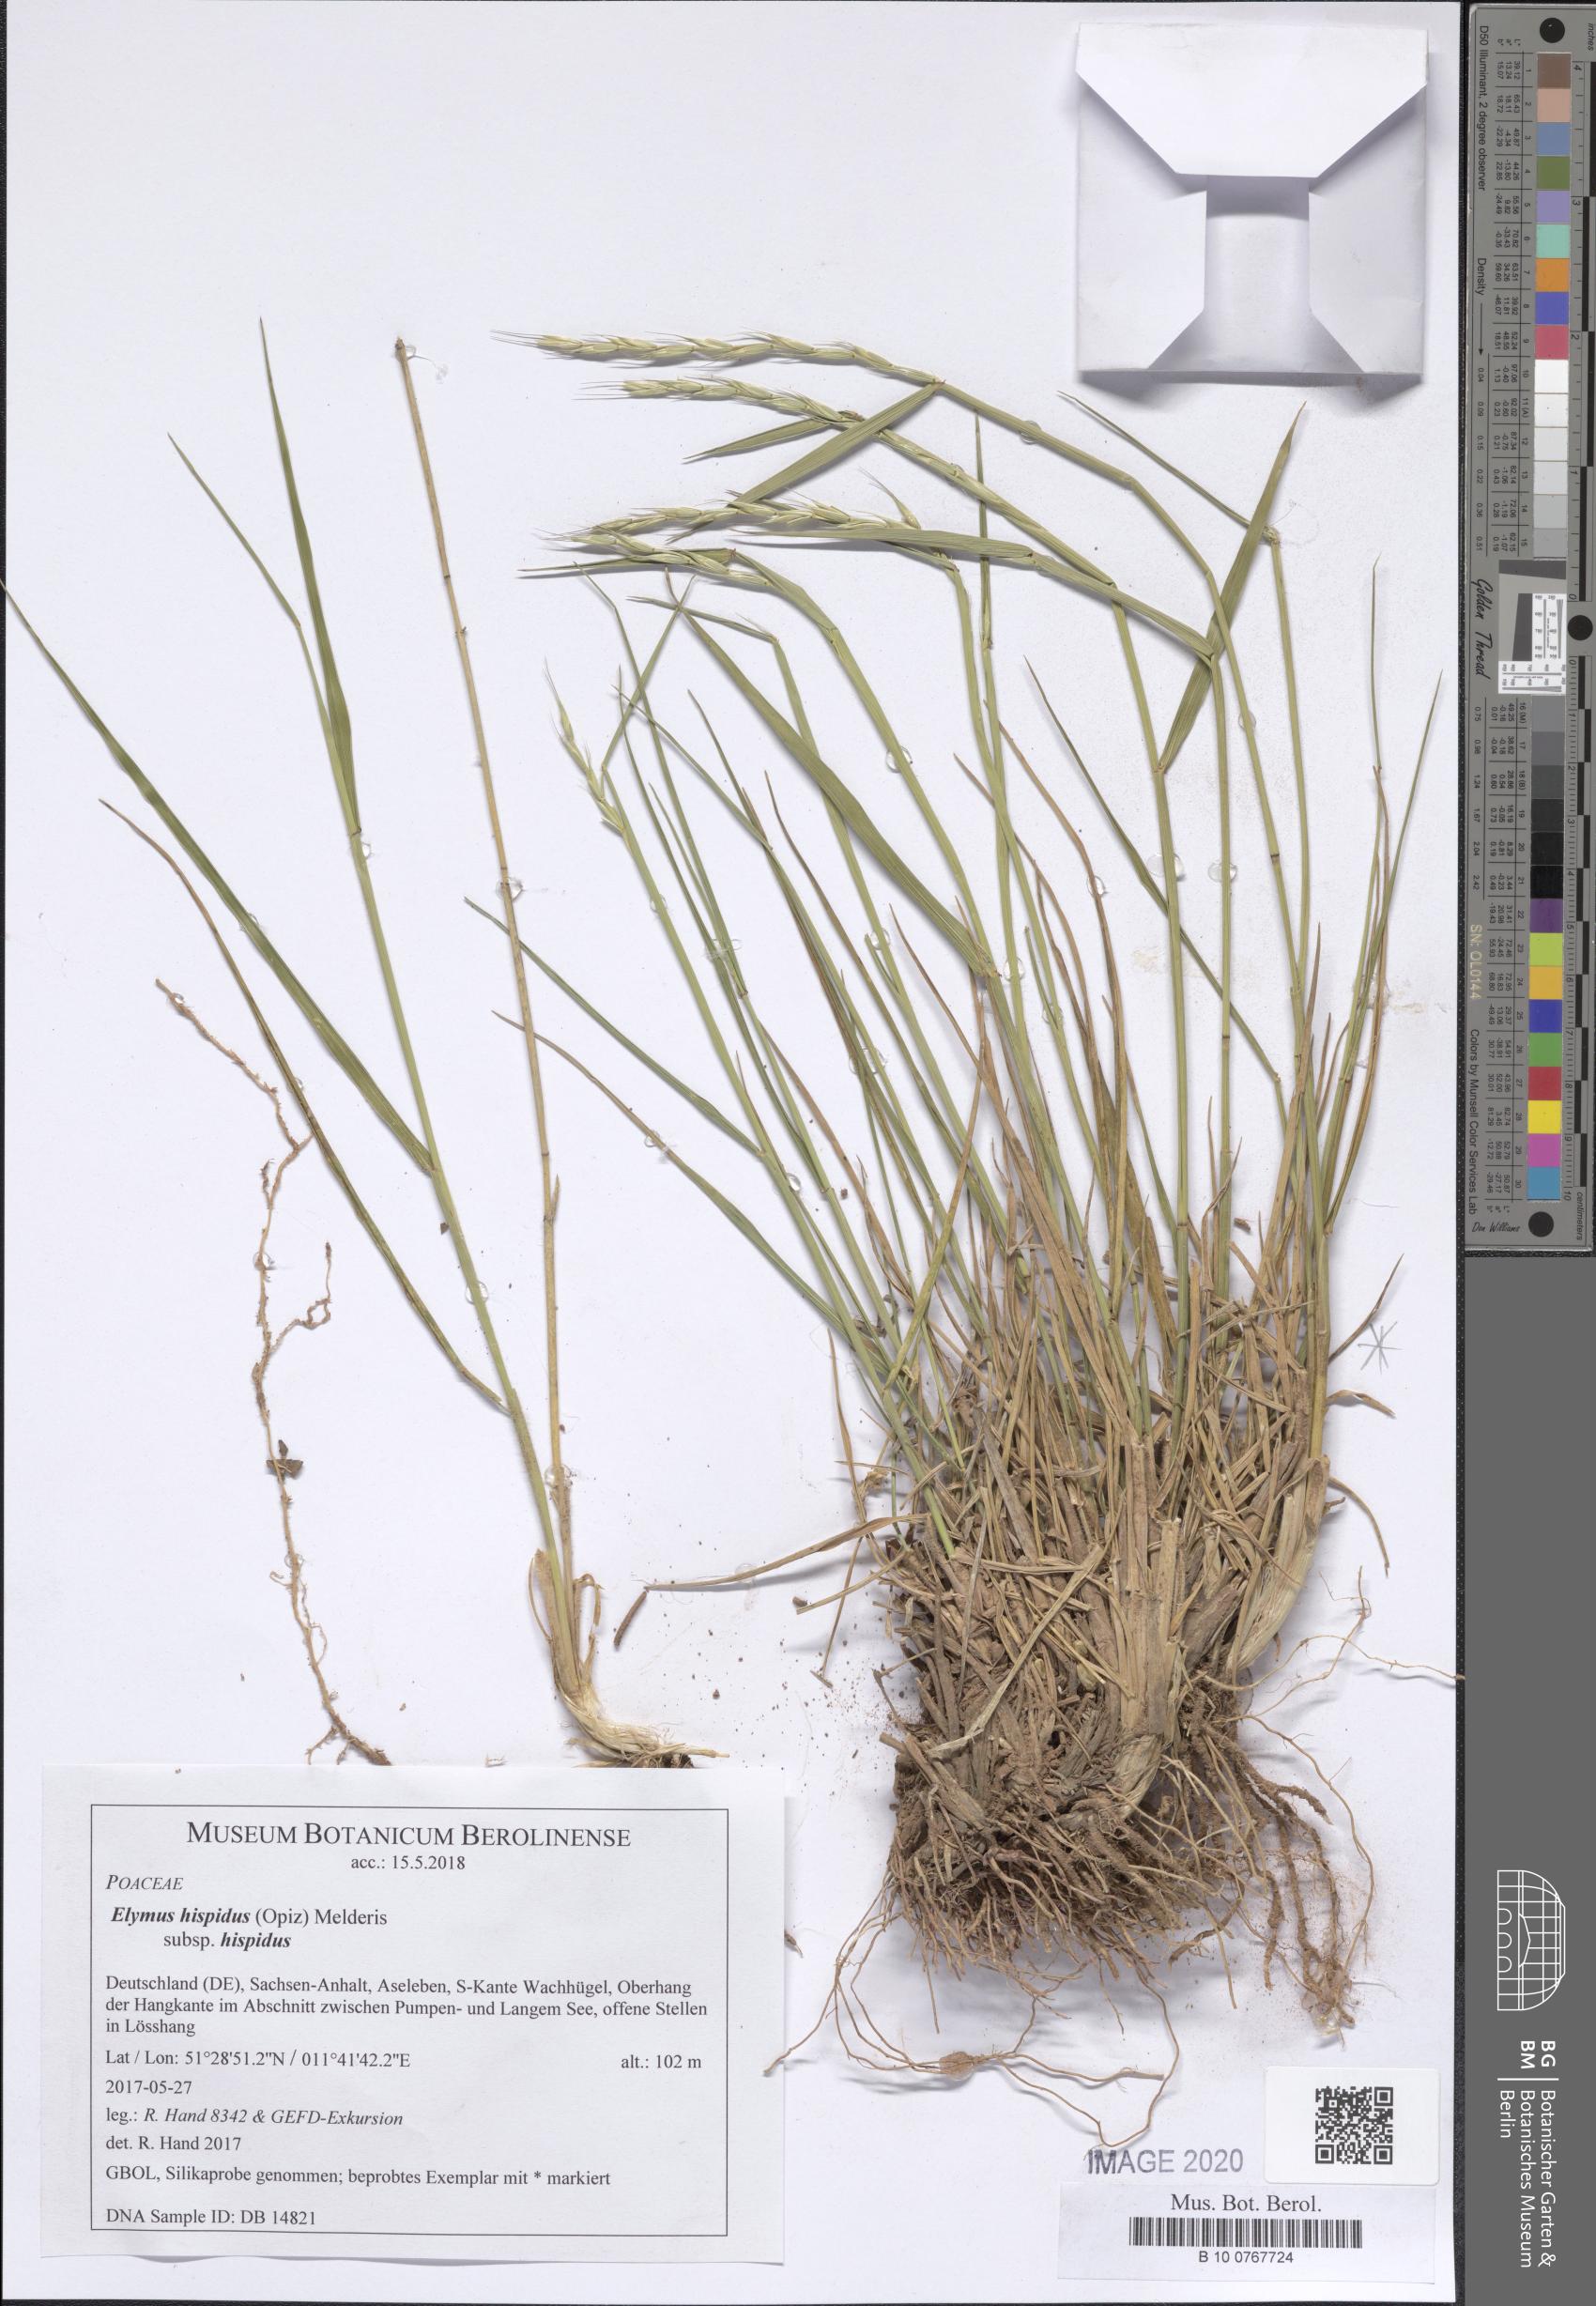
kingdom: Plantae
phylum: Tracheophyta
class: Liliopsida
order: Poales
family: Poaceae
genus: Thinopyrum
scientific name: Thinopyrum intermedium
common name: Intermediate wheatgrass
